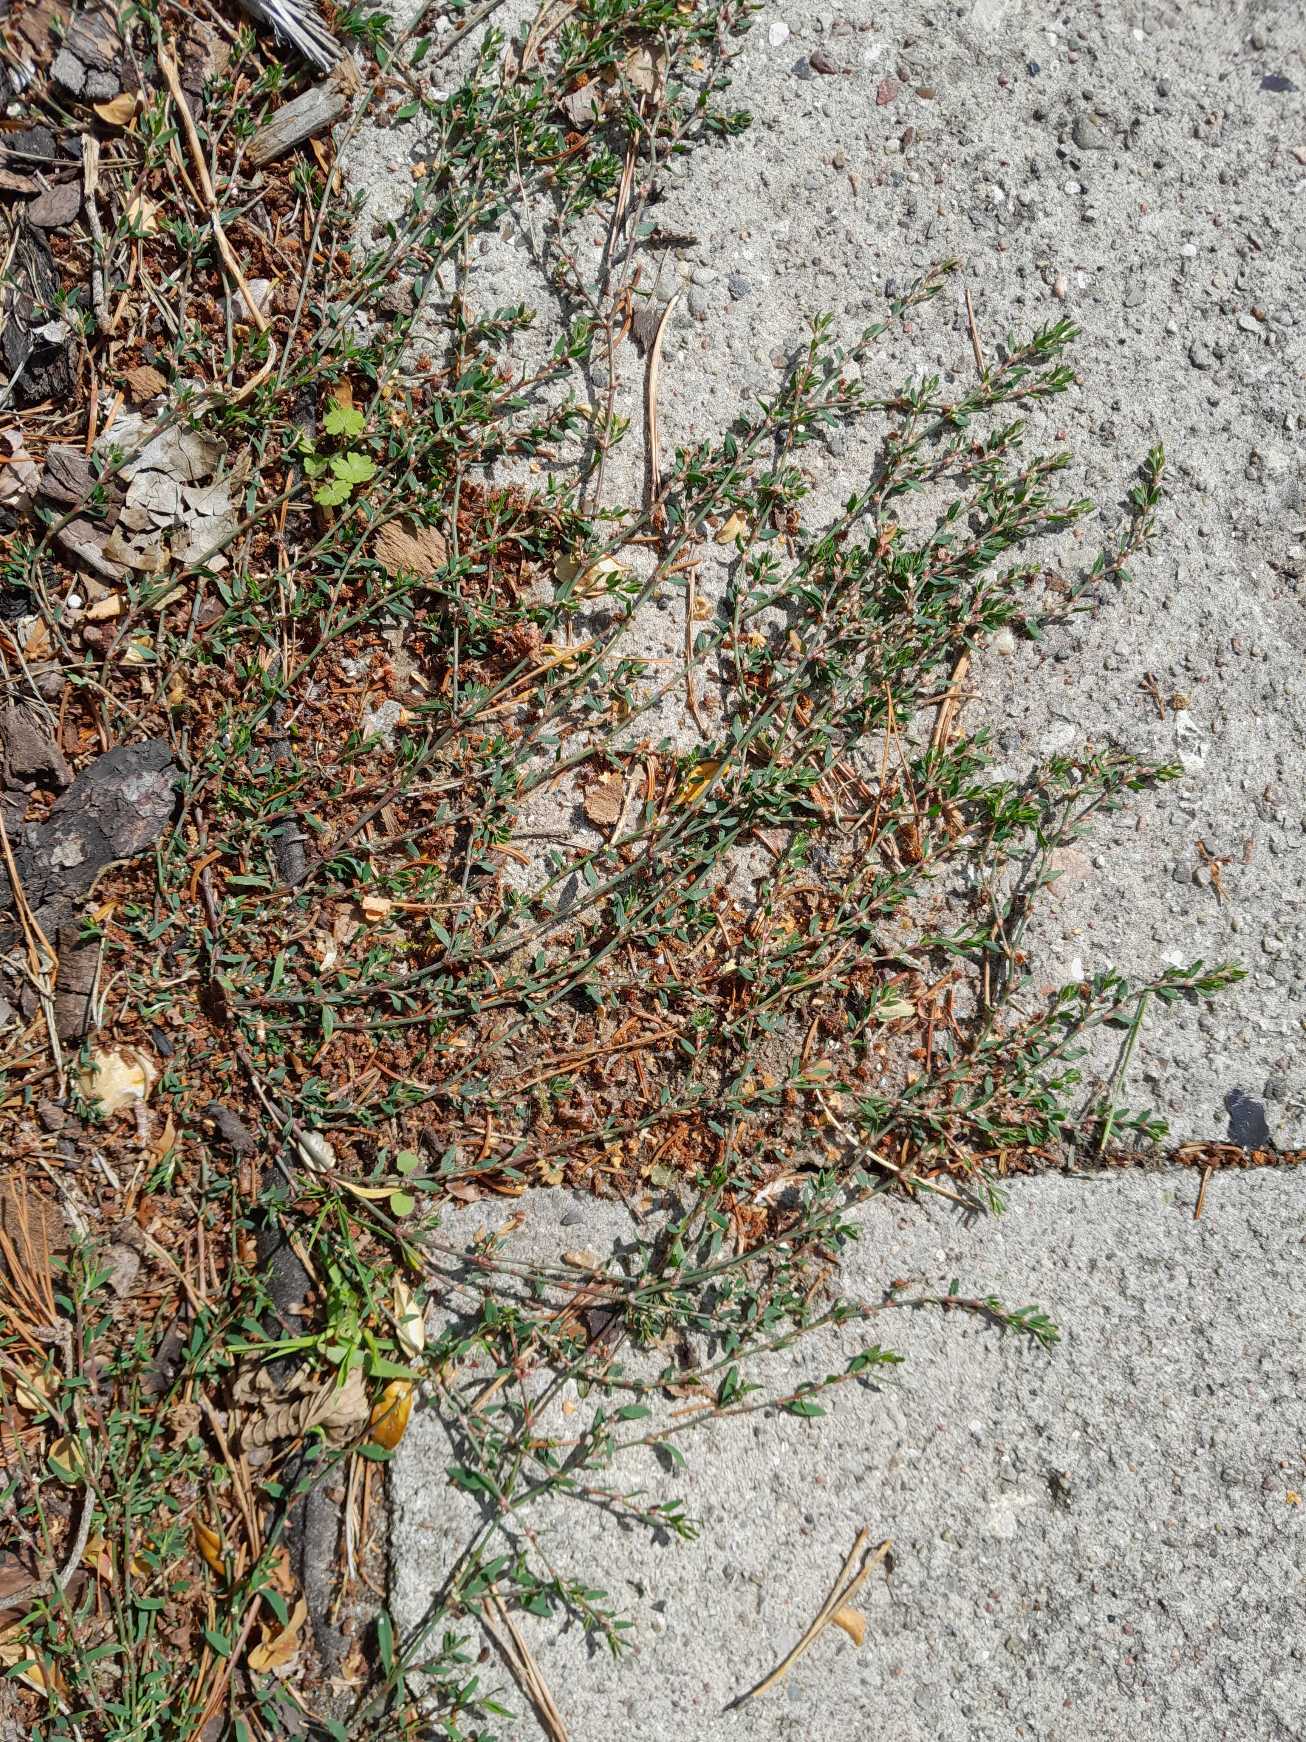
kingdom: Plantae
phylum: Tracheophyta
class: Magnoliopsida
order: Caryophyllales
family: Polygonaceae
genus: Polygonum
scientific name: Polygonum arenastrum
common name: Liggende vej-pileurt
